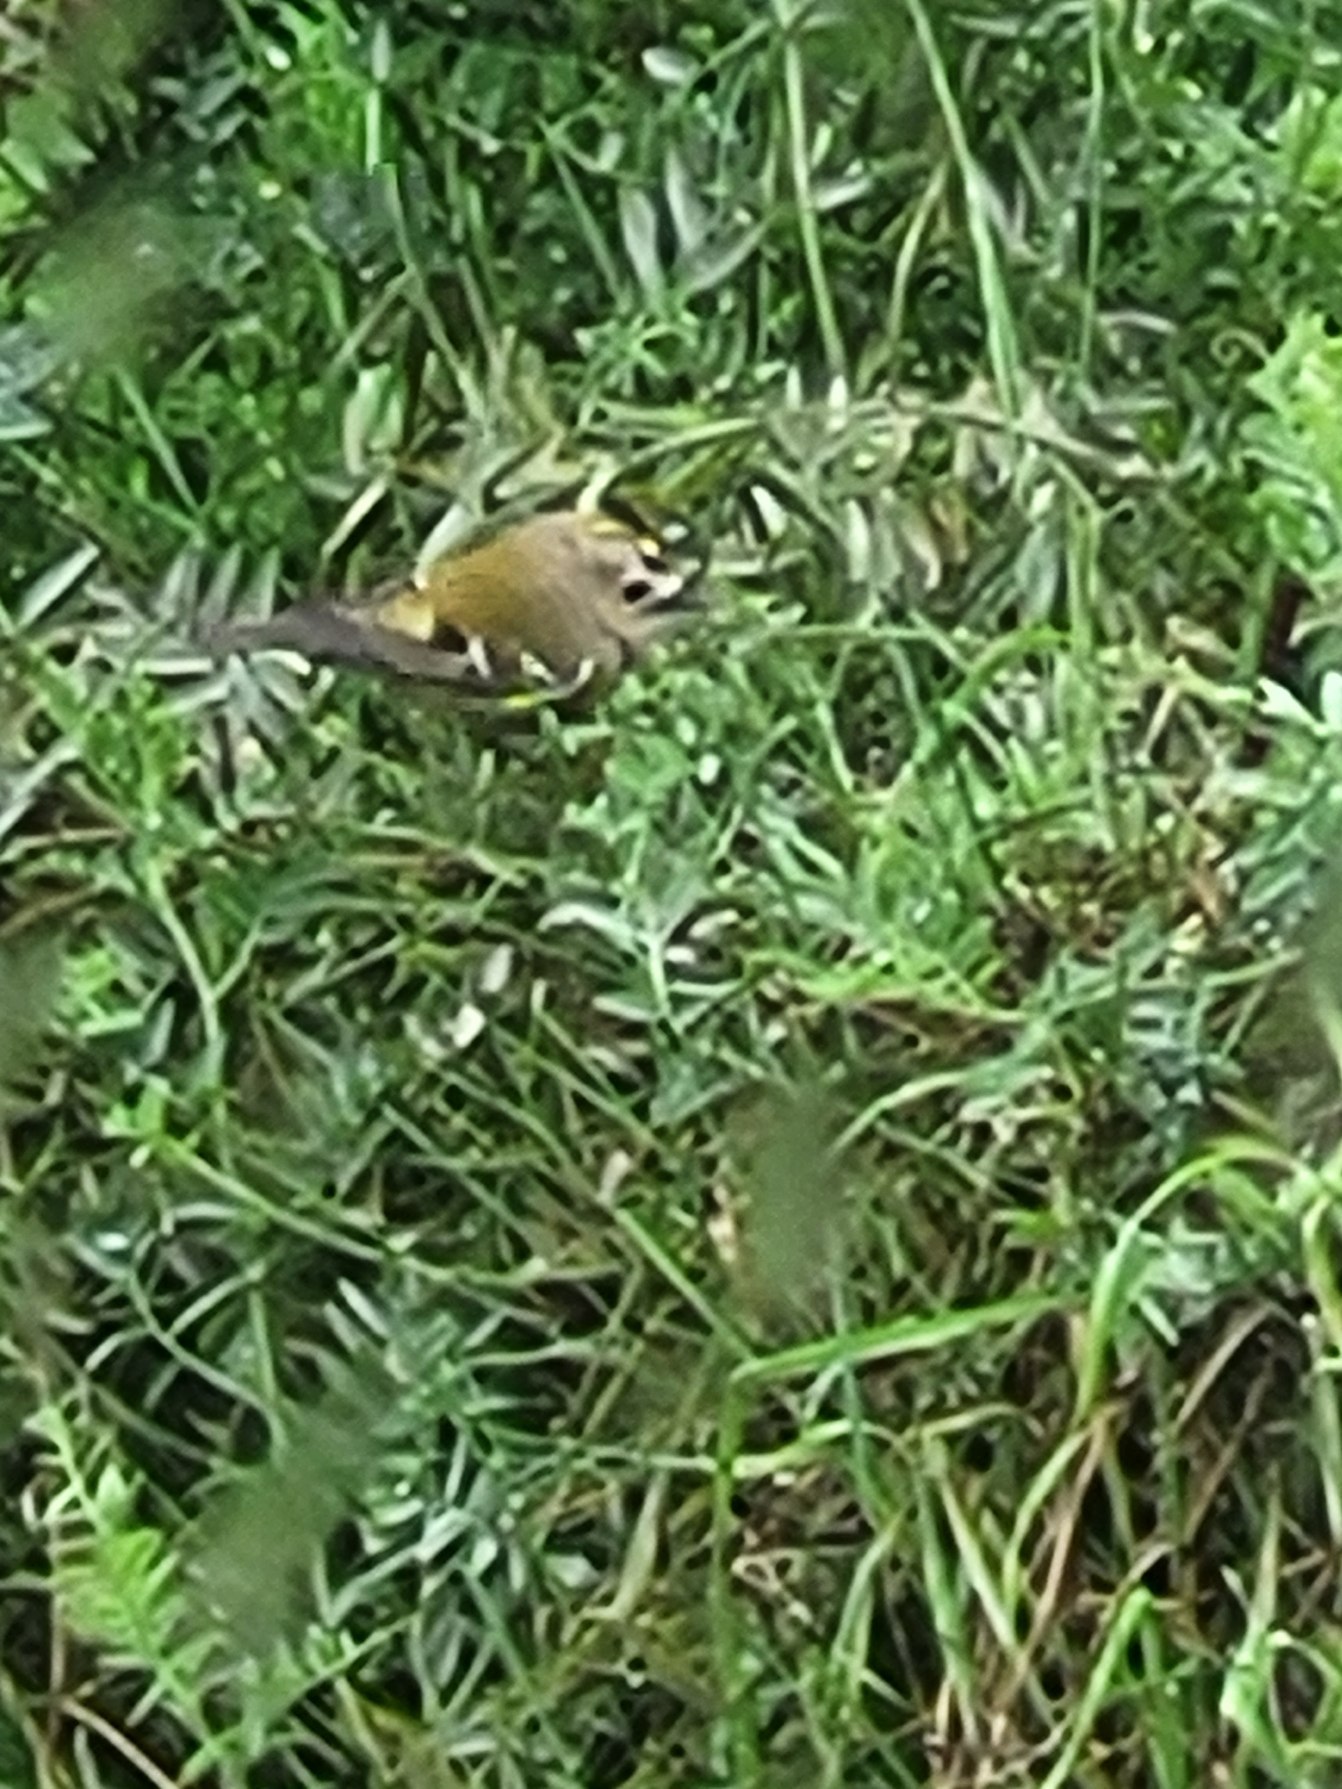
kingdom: Animalia
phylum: Chordata
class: Aves
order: Passeriformes
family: Regulidae
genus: Regulus
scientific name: Regulus regulus
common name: Fuglekonge
